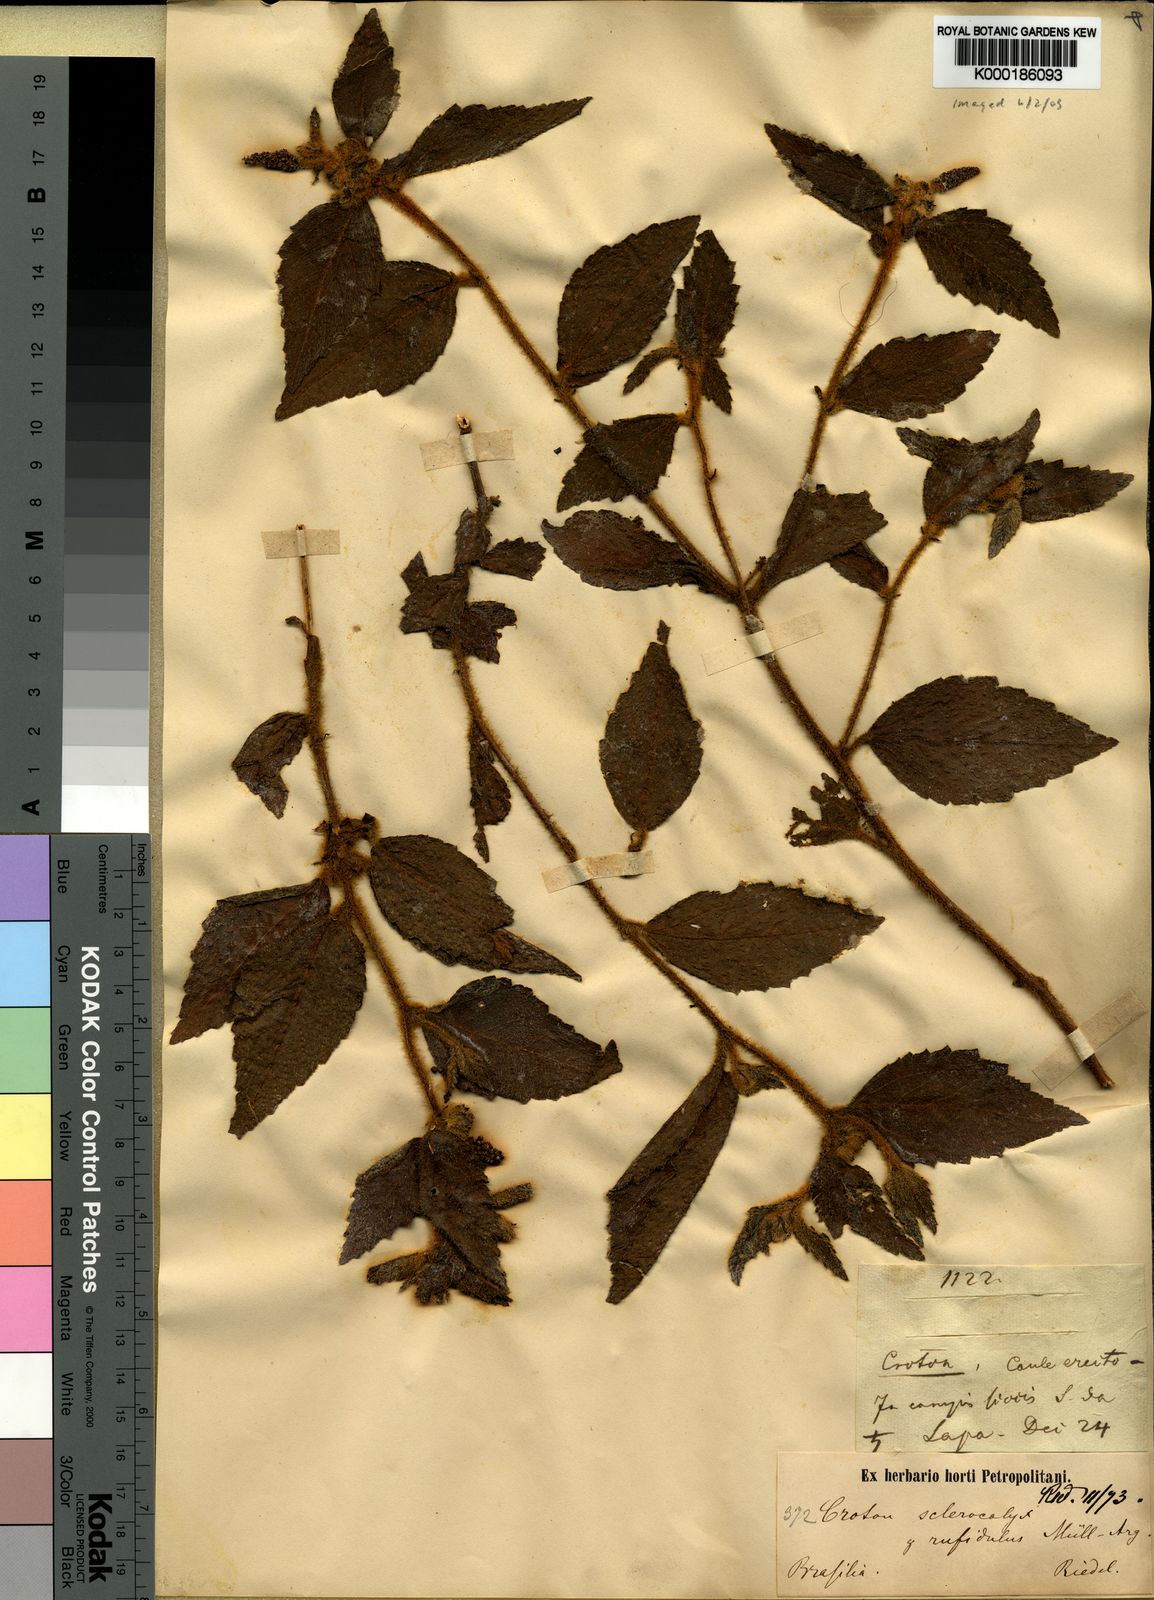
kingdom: Plantae
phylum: Tracheophyta
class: Magnoliopsida
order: Malpighiales
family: Euphorbiaceae
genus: Croton
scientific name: Croton
